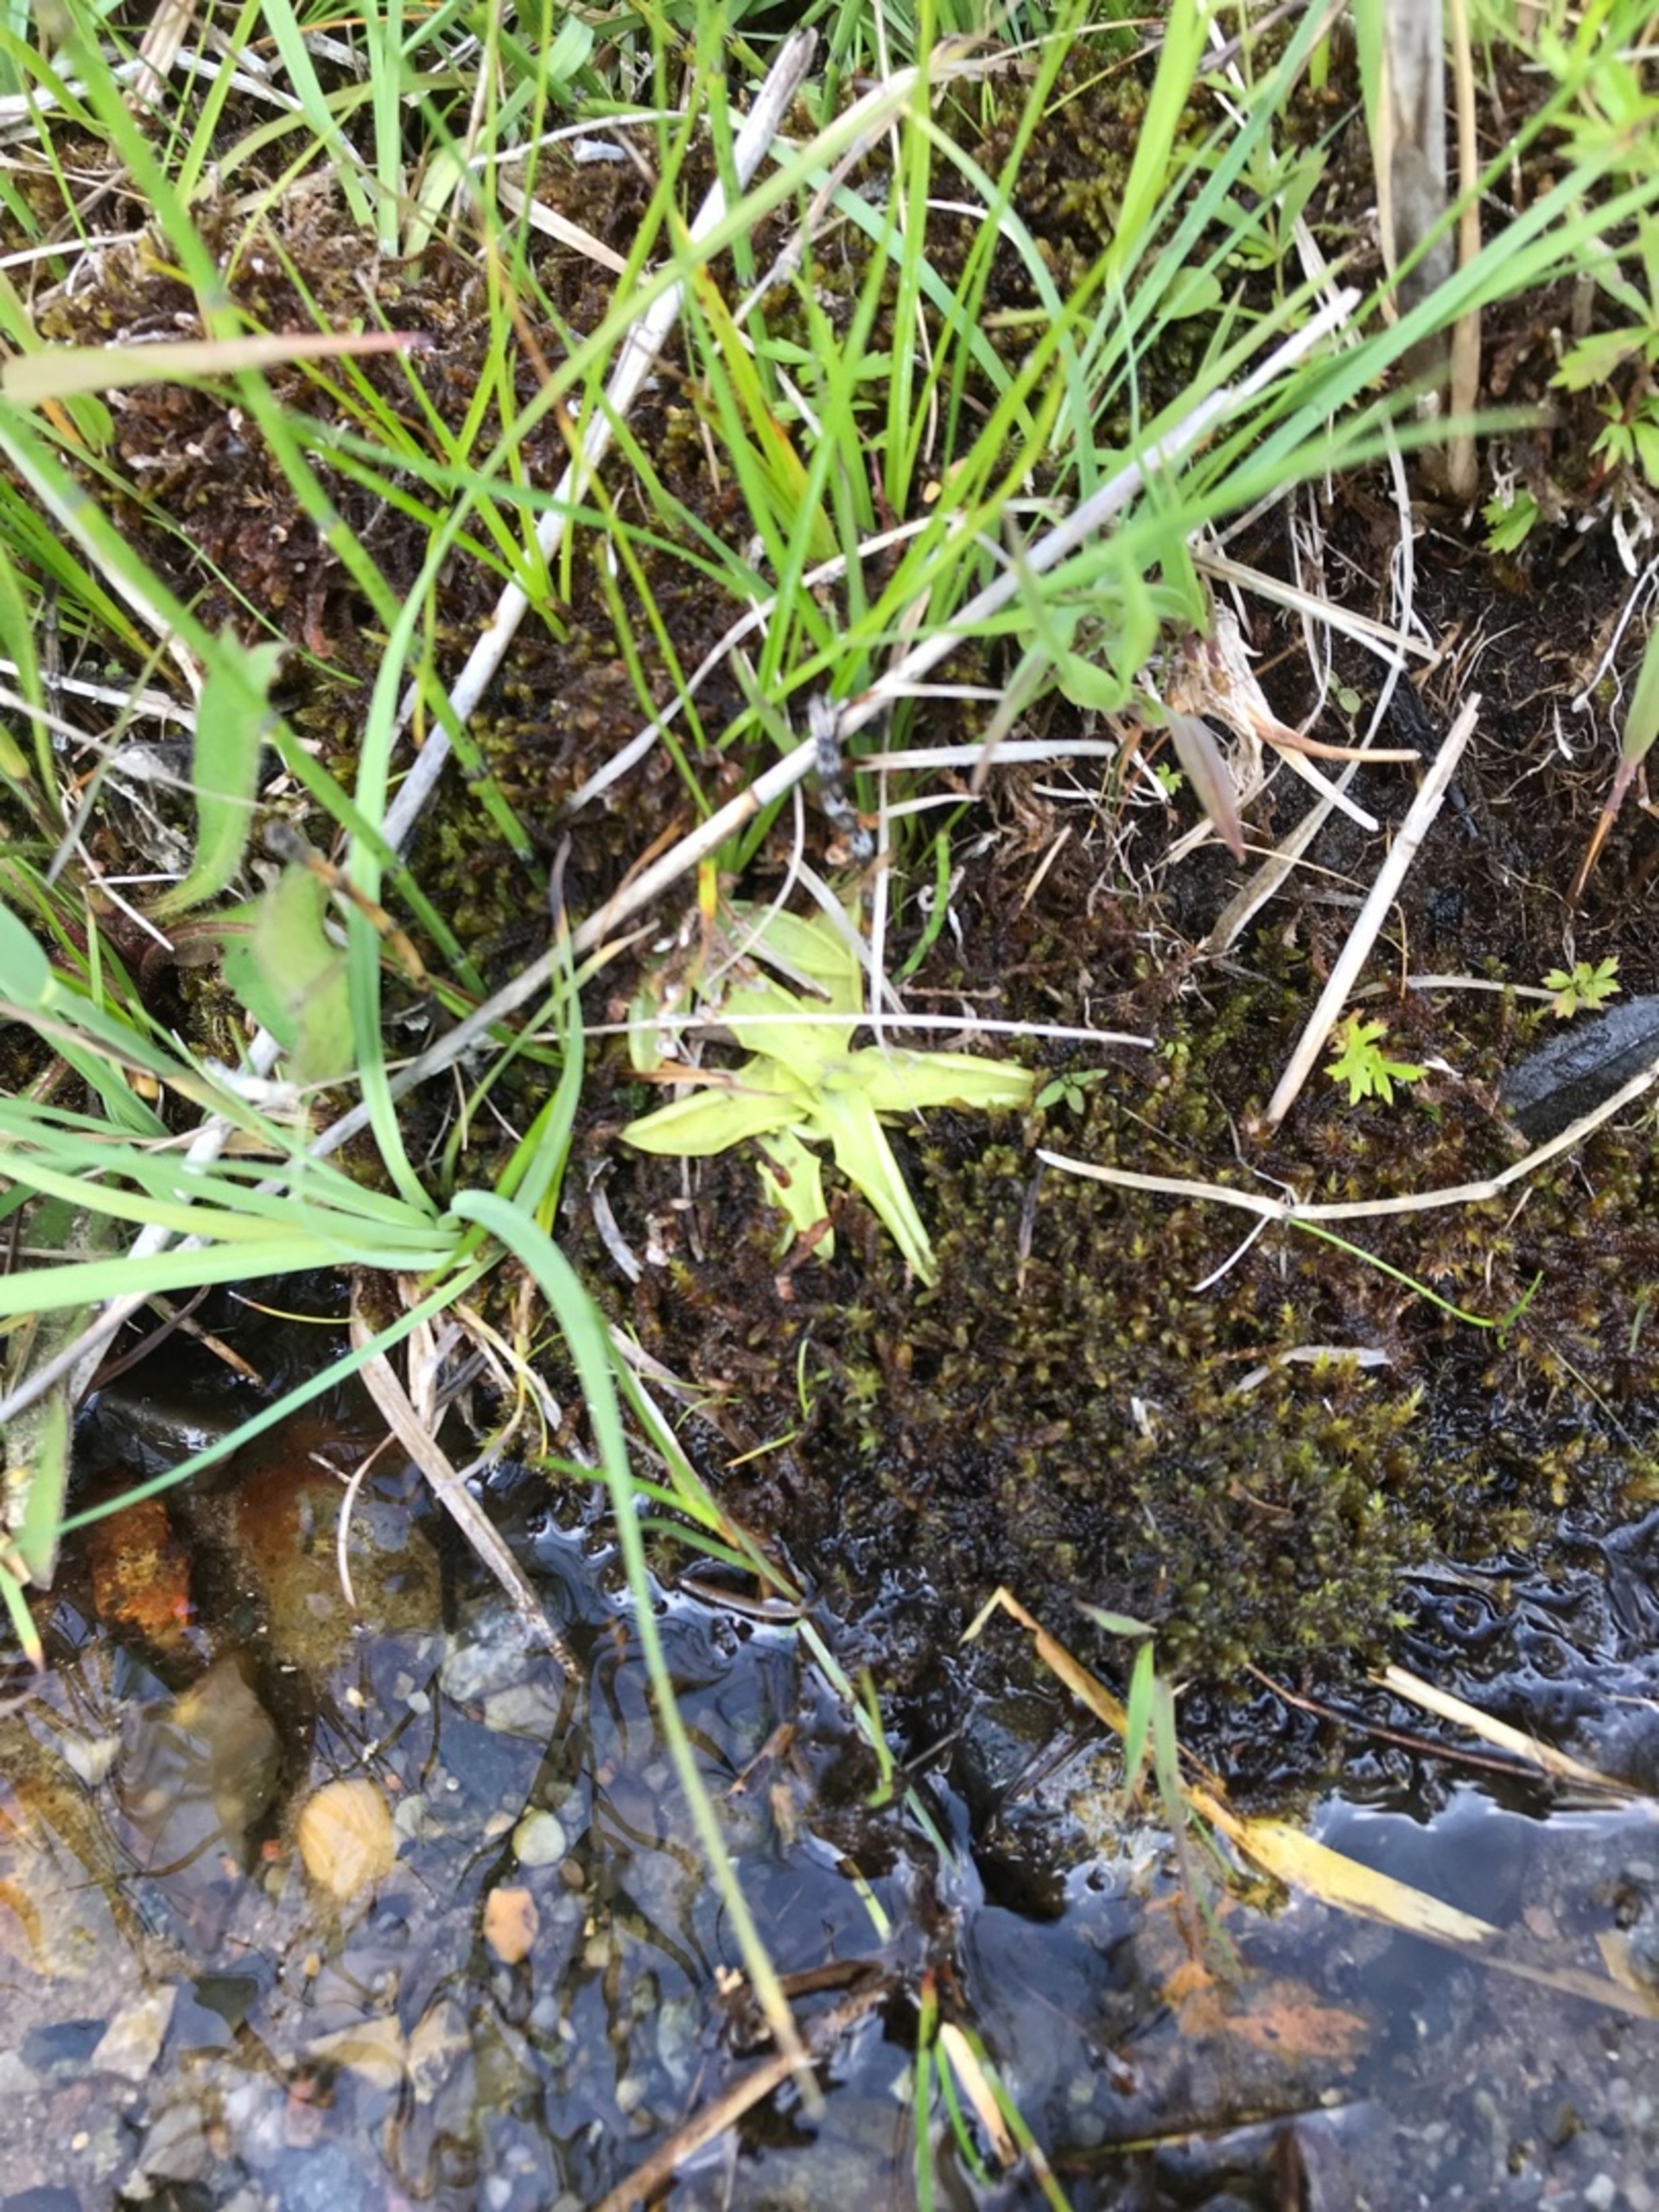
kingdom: Plantae
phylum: Tracheophyta
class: Magnoliopsida
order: Lamiales
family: Lentibulariaceae
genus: Pinguicula
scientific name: Pinguicula vulgaris
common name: Vibefedt
